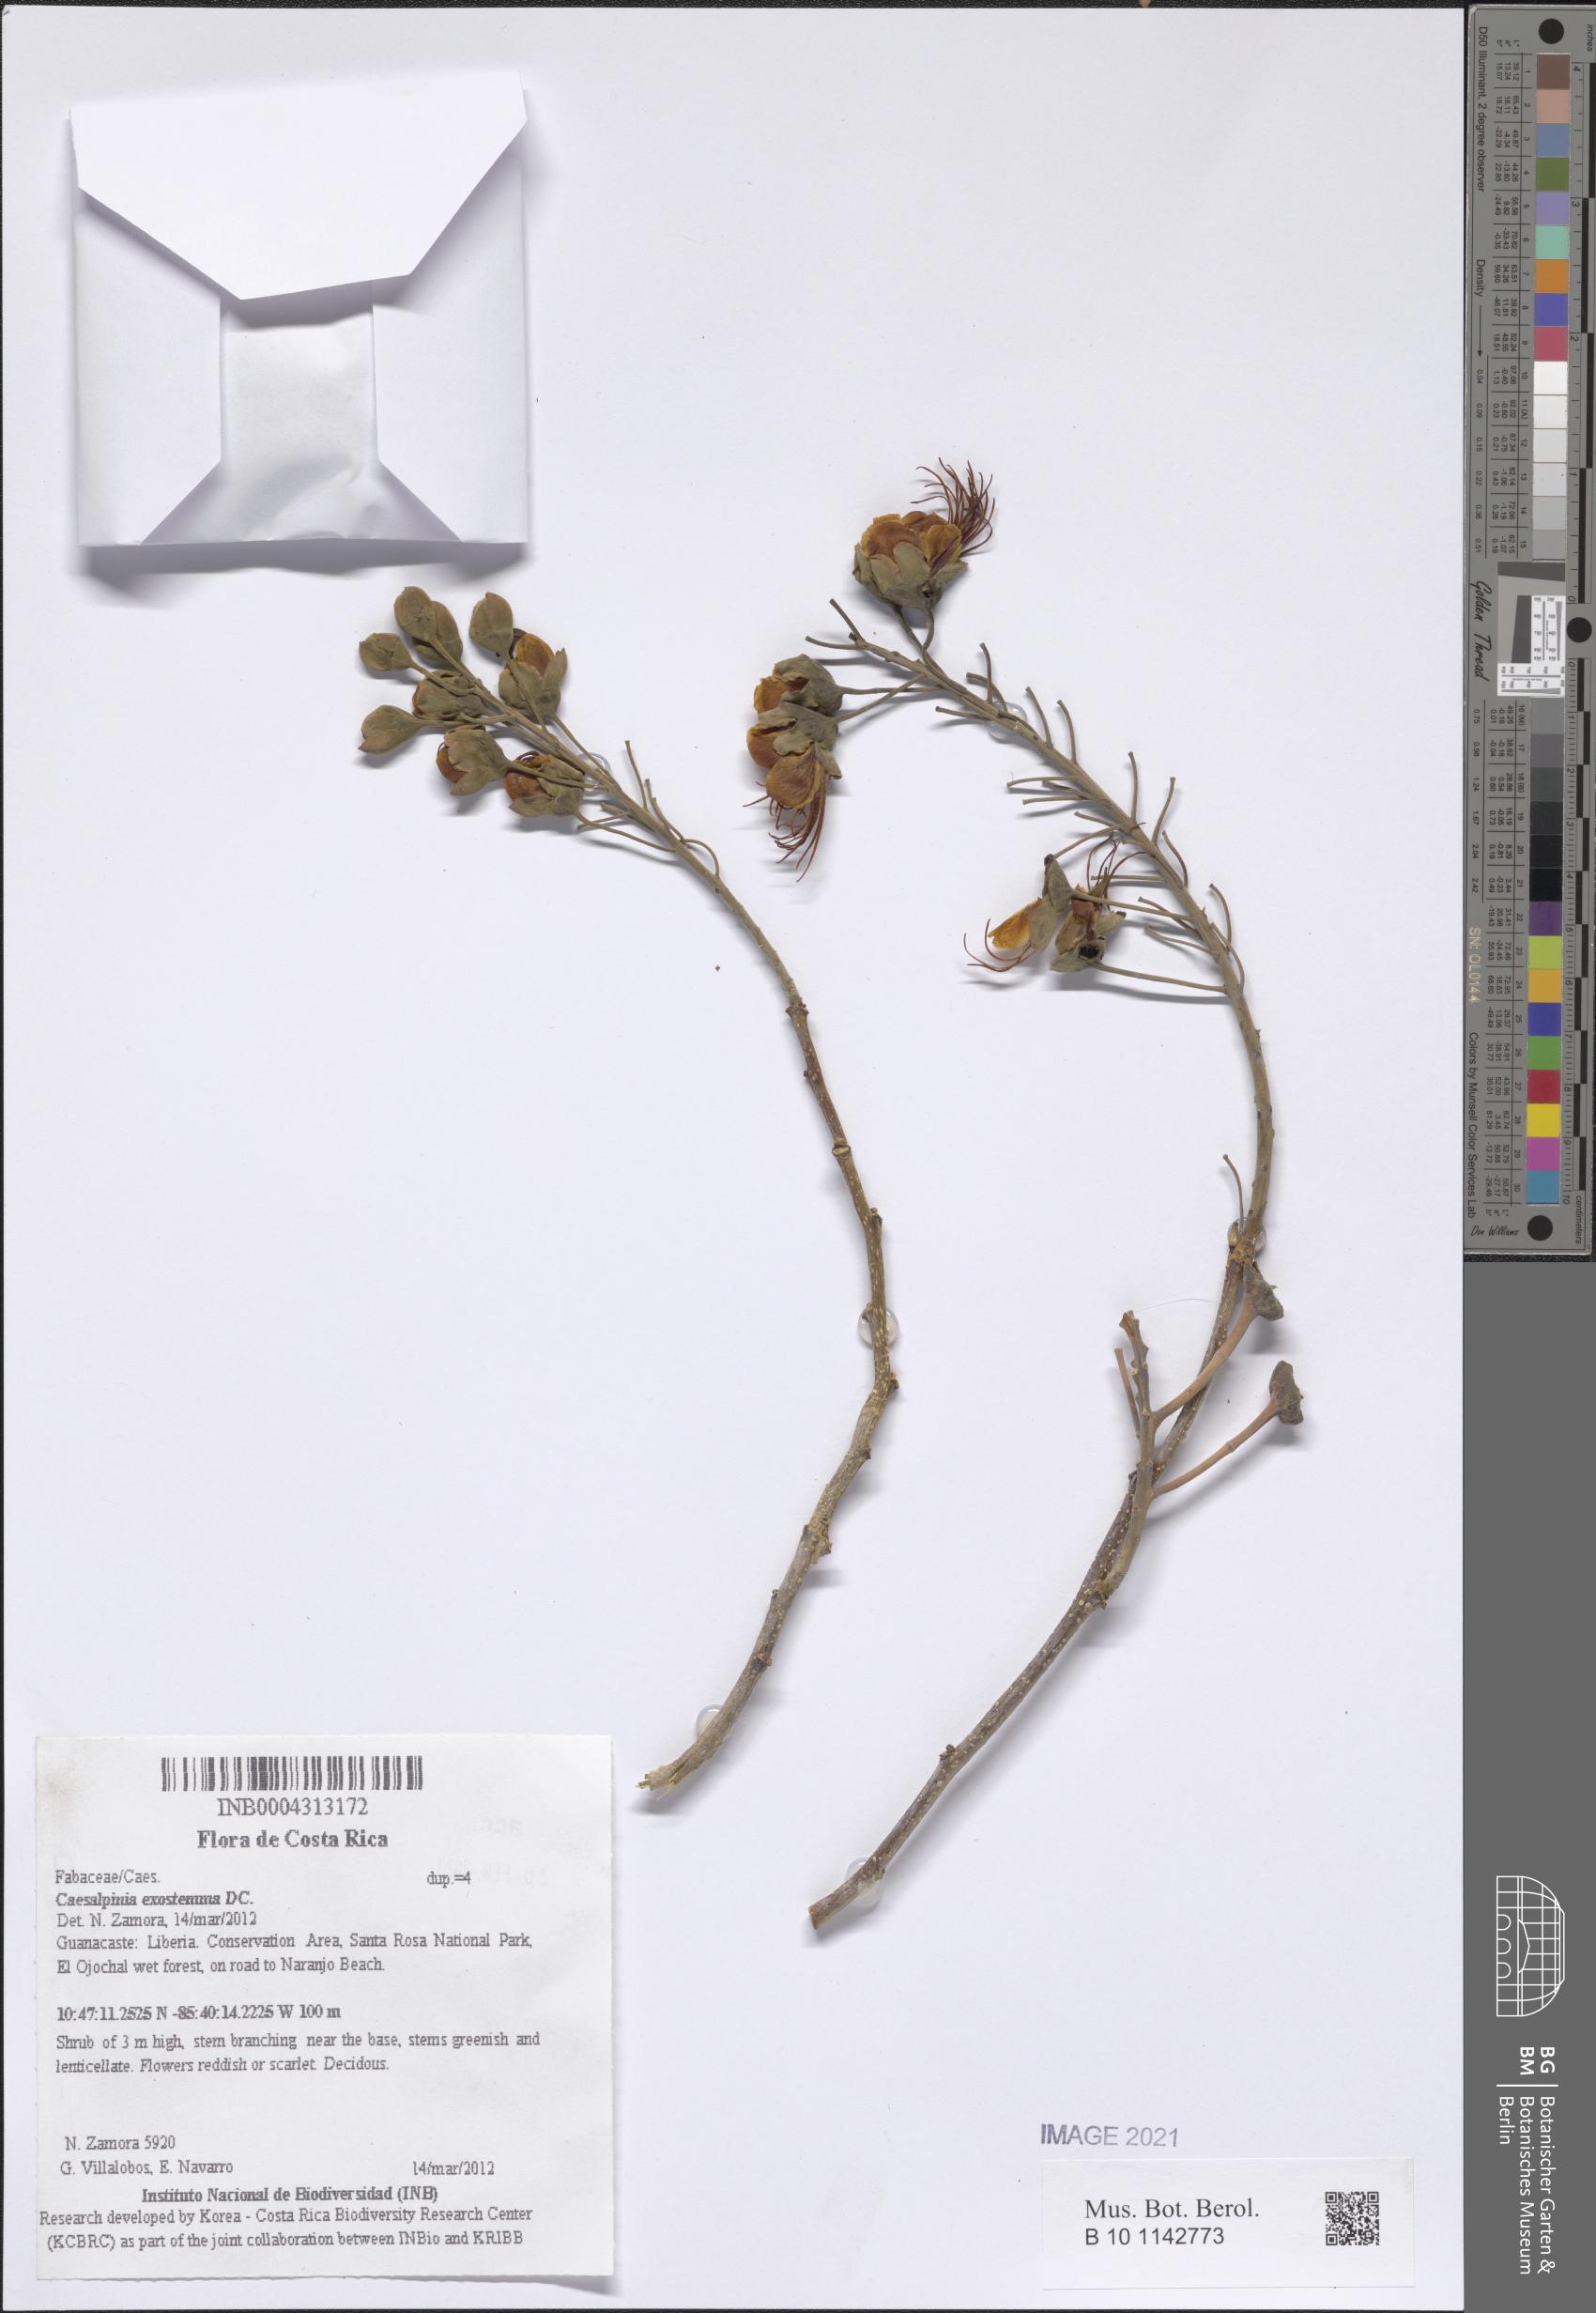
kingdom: Plantae
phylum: Tracheophyta
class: Magnoliopsida
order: Fabales
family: Fabaceae
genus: Erythrostemon
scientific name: Erythrostemon exostemma
